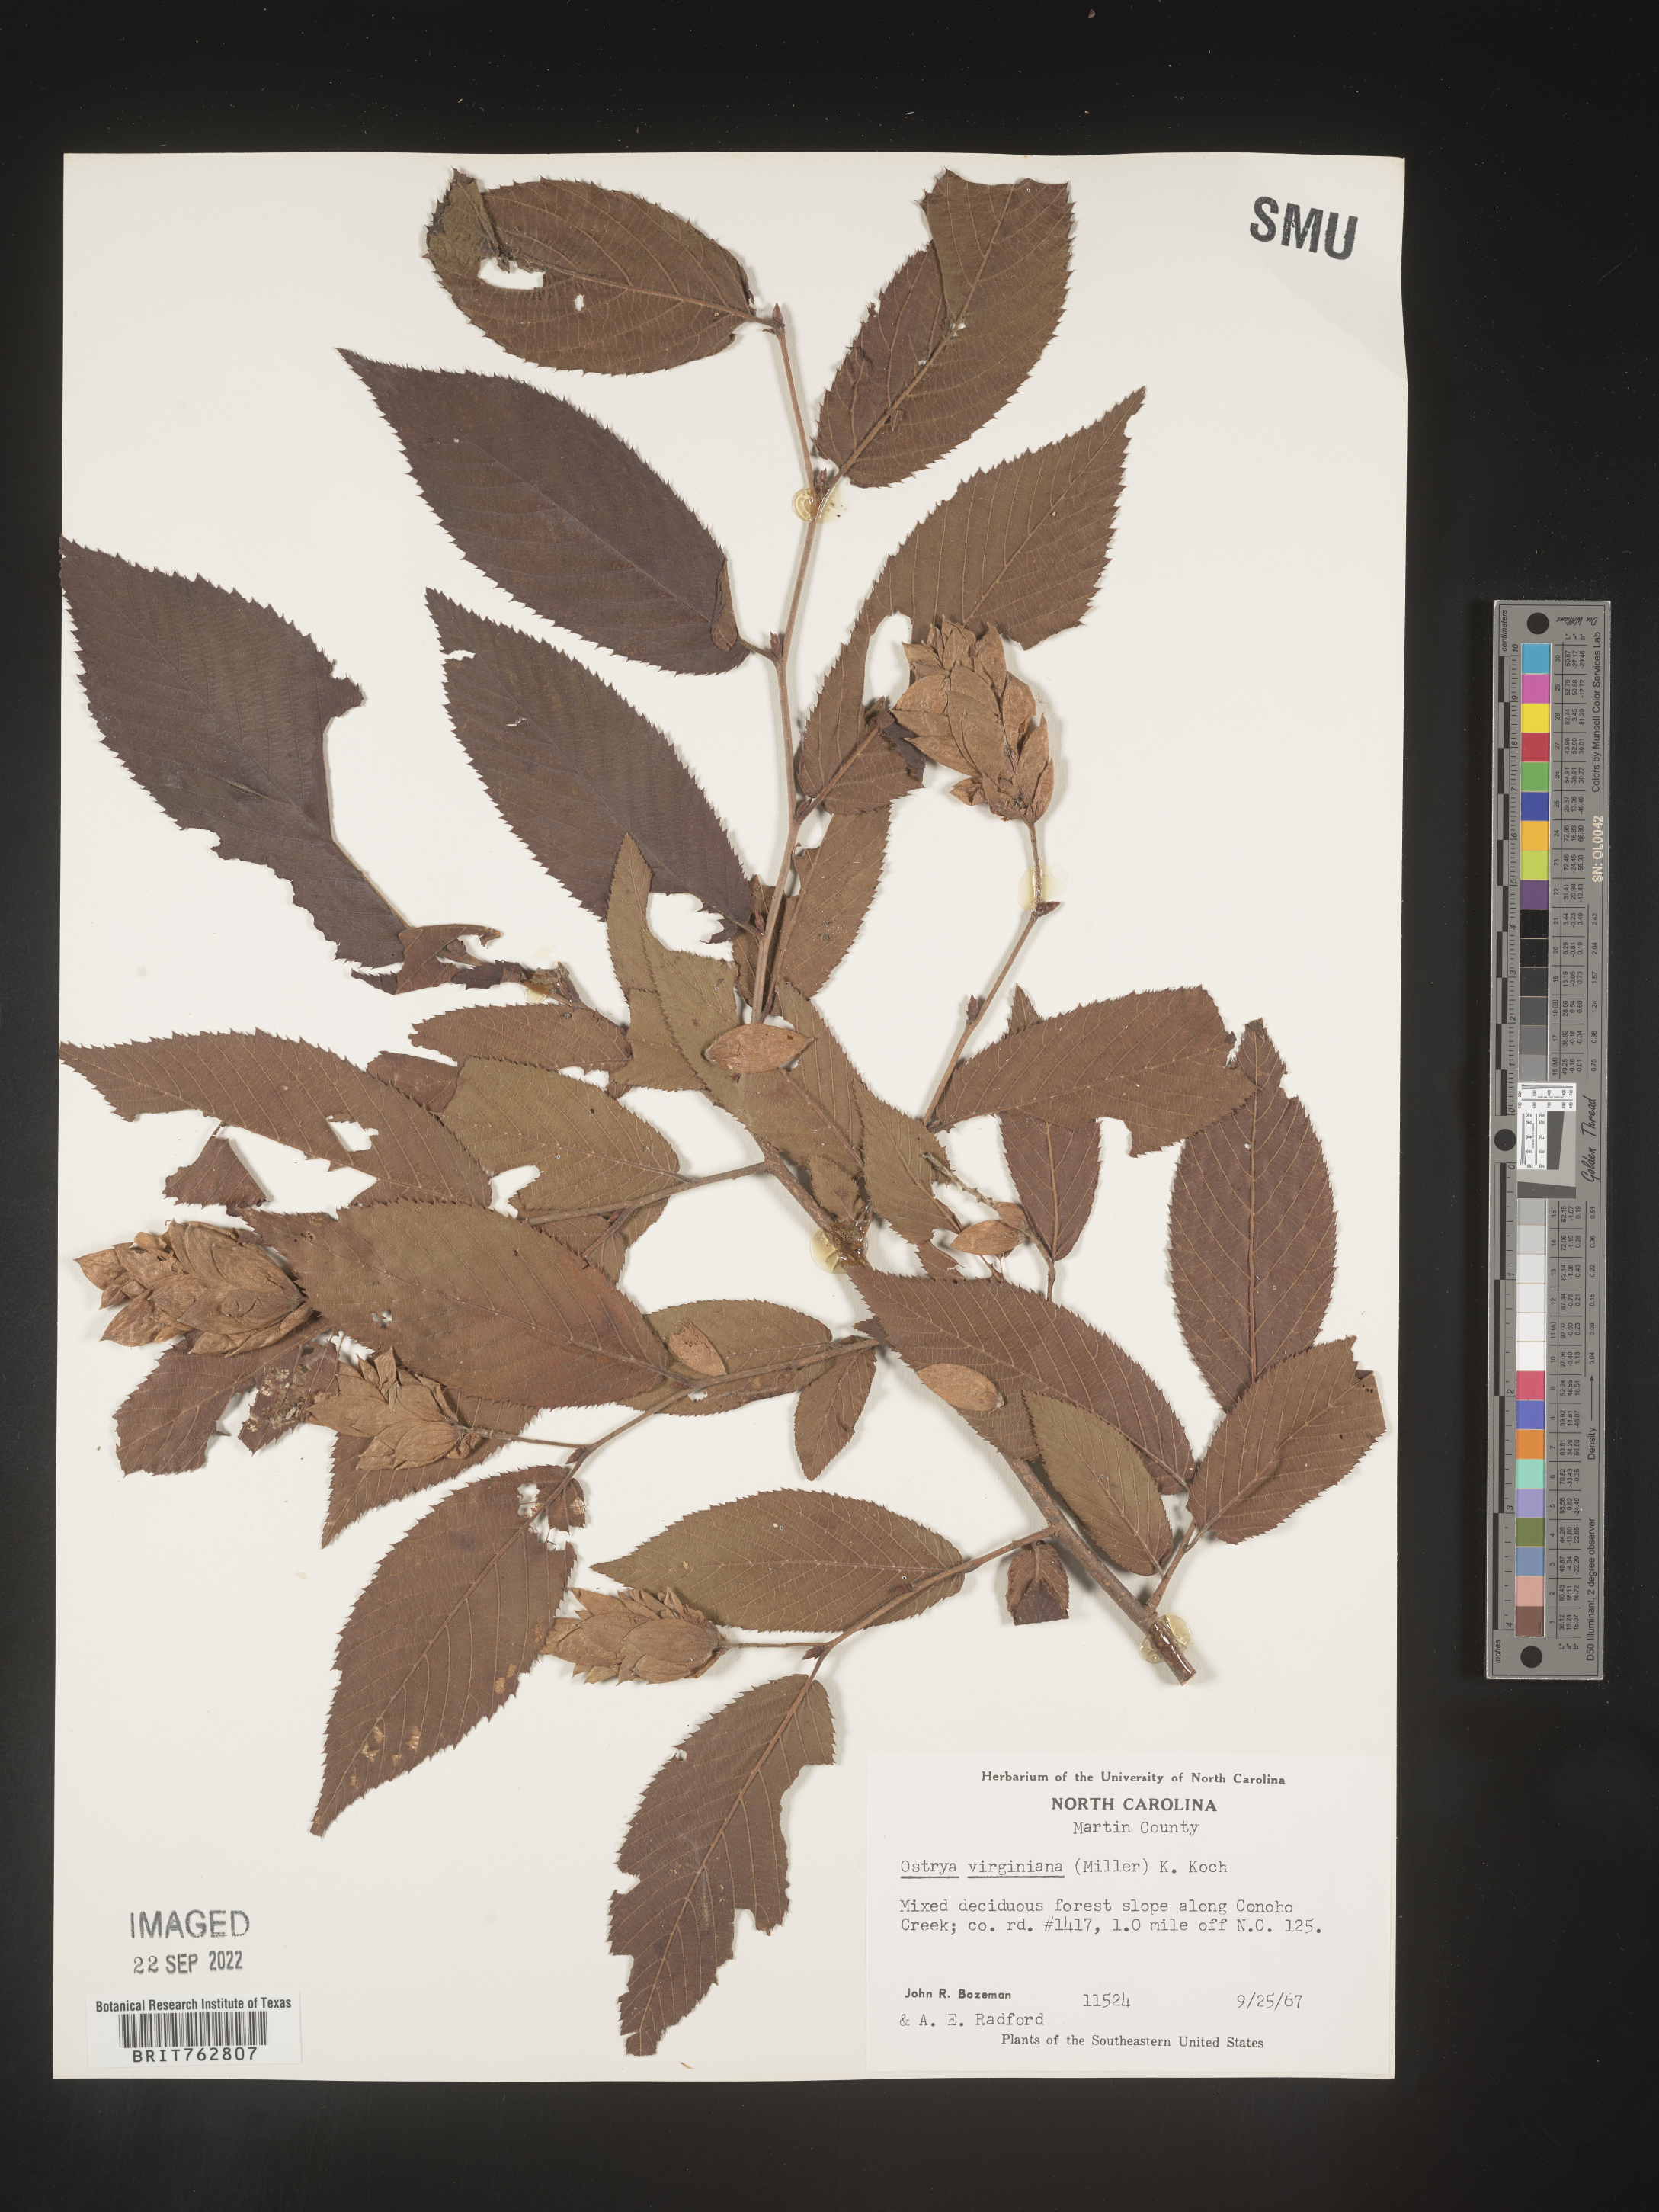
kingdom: Plantae
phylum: Tracheophyta
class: Magnoliopsida
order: Fagales
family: Betulaceae
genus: Ostrya
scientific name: Ostrya virginiana
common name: Ironwood
